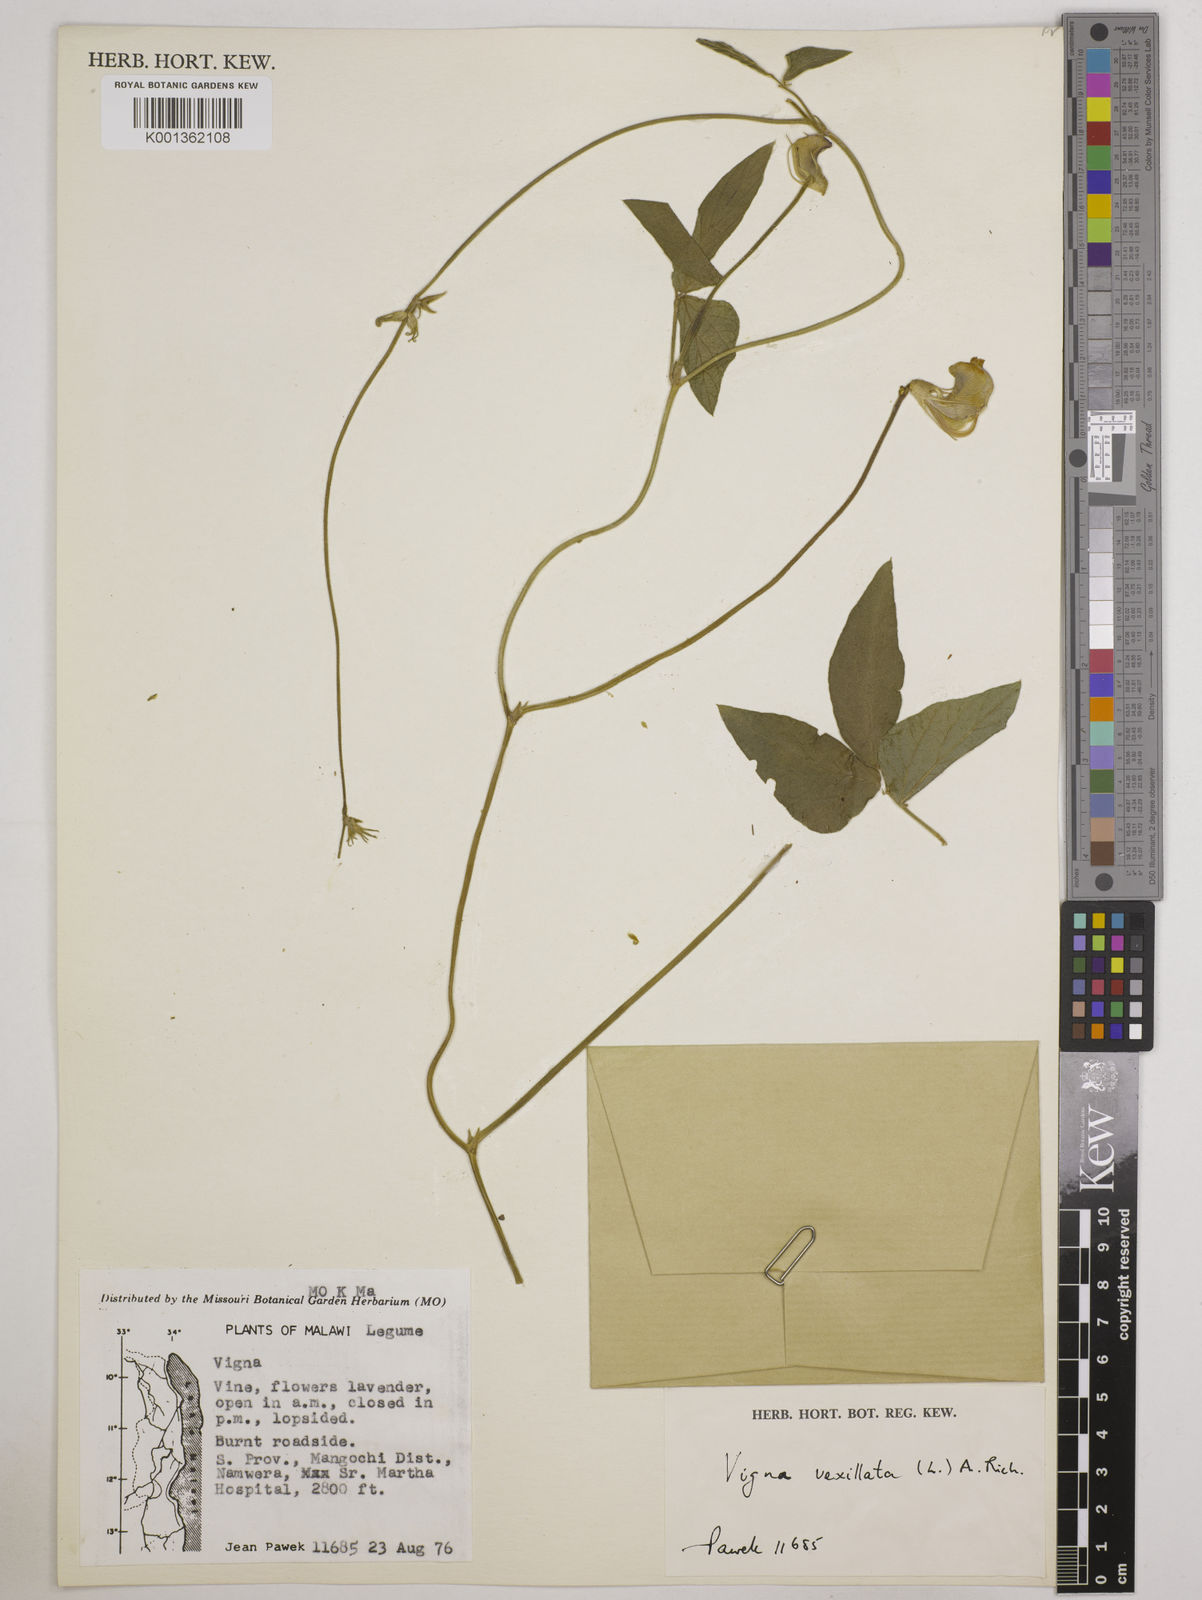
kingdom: Plantae
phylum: Tracheophyta
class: Magnoliopsida
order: Fabales
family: Fabaceae
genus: Vigna
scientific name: Vigna vexillata
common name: Zombi pea
